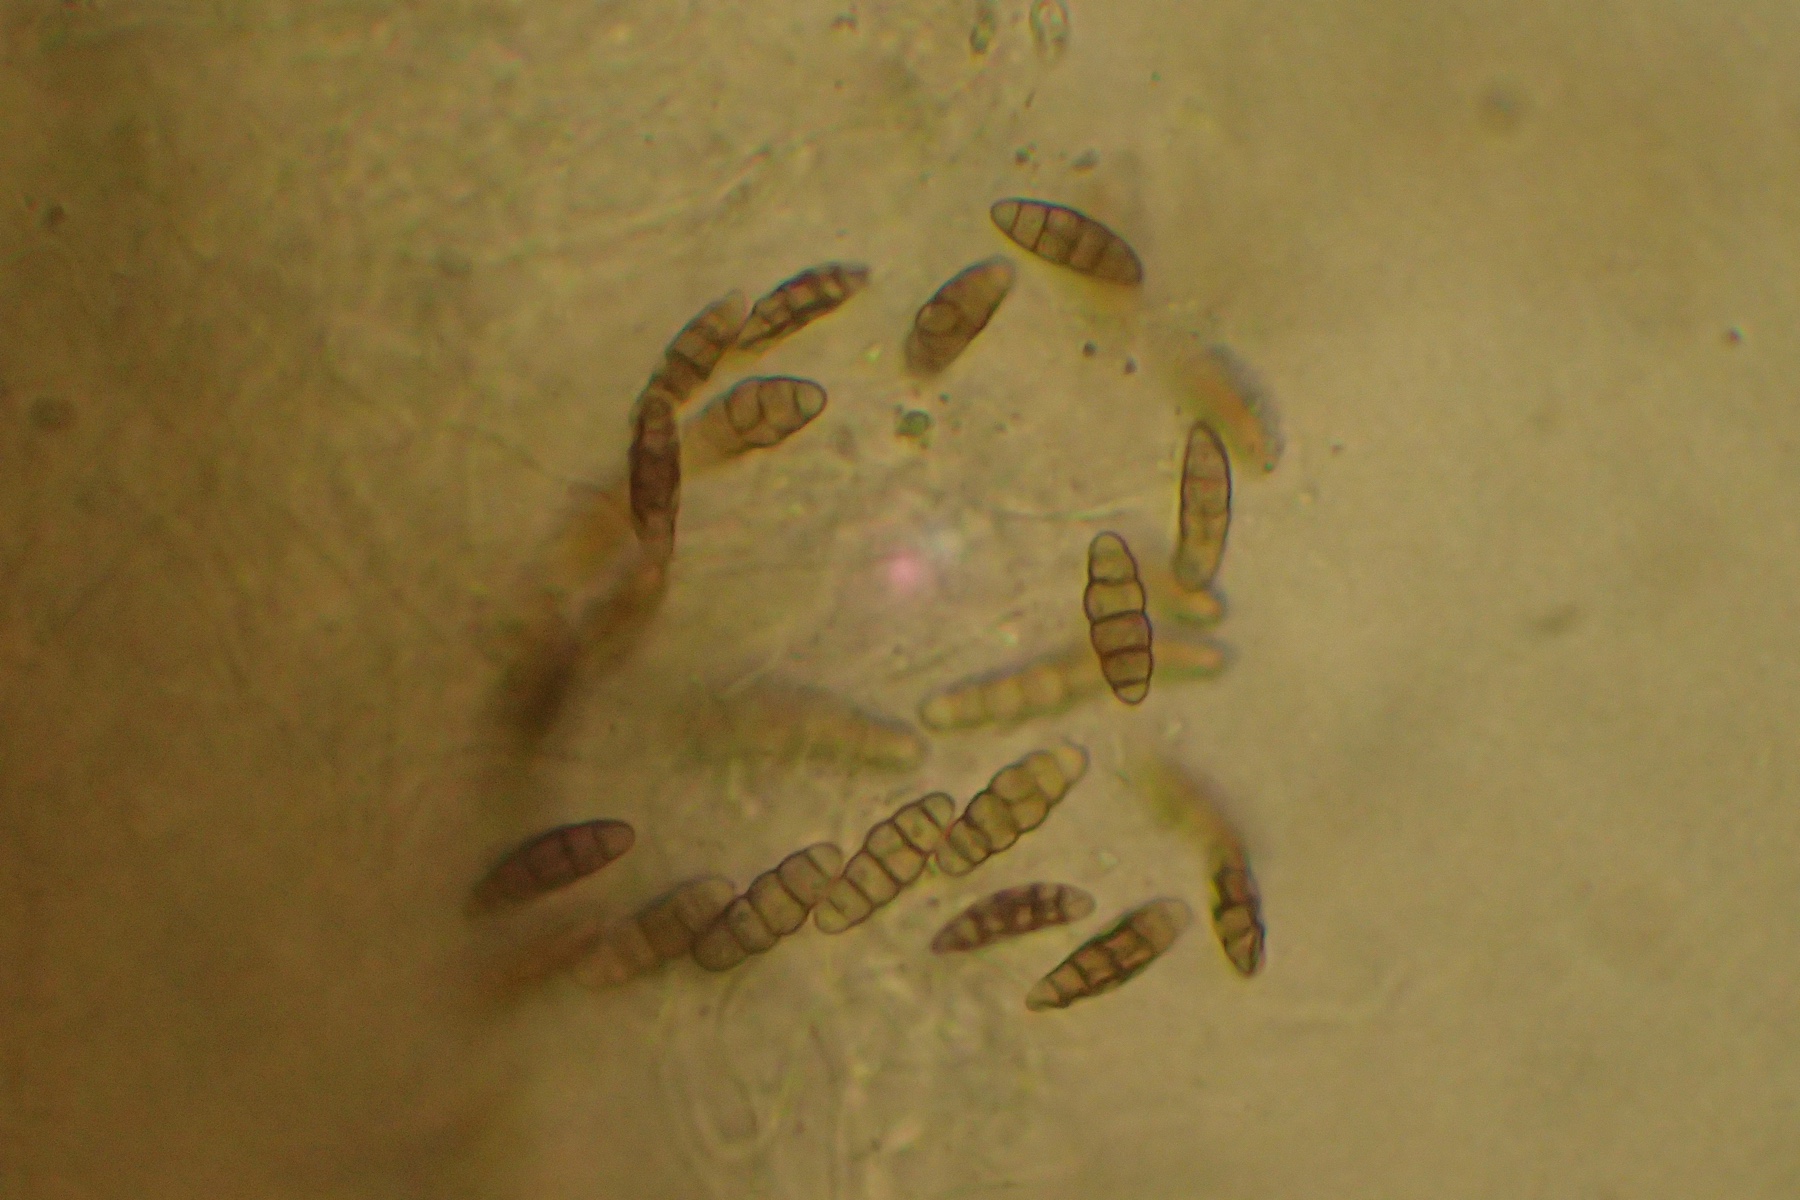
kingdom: Fungi
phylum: Ascomycota
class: Dothideomycetes
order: Pleosporales
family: Pleosporaceae
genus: Pleospora
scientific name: Pleospora vitalbae
